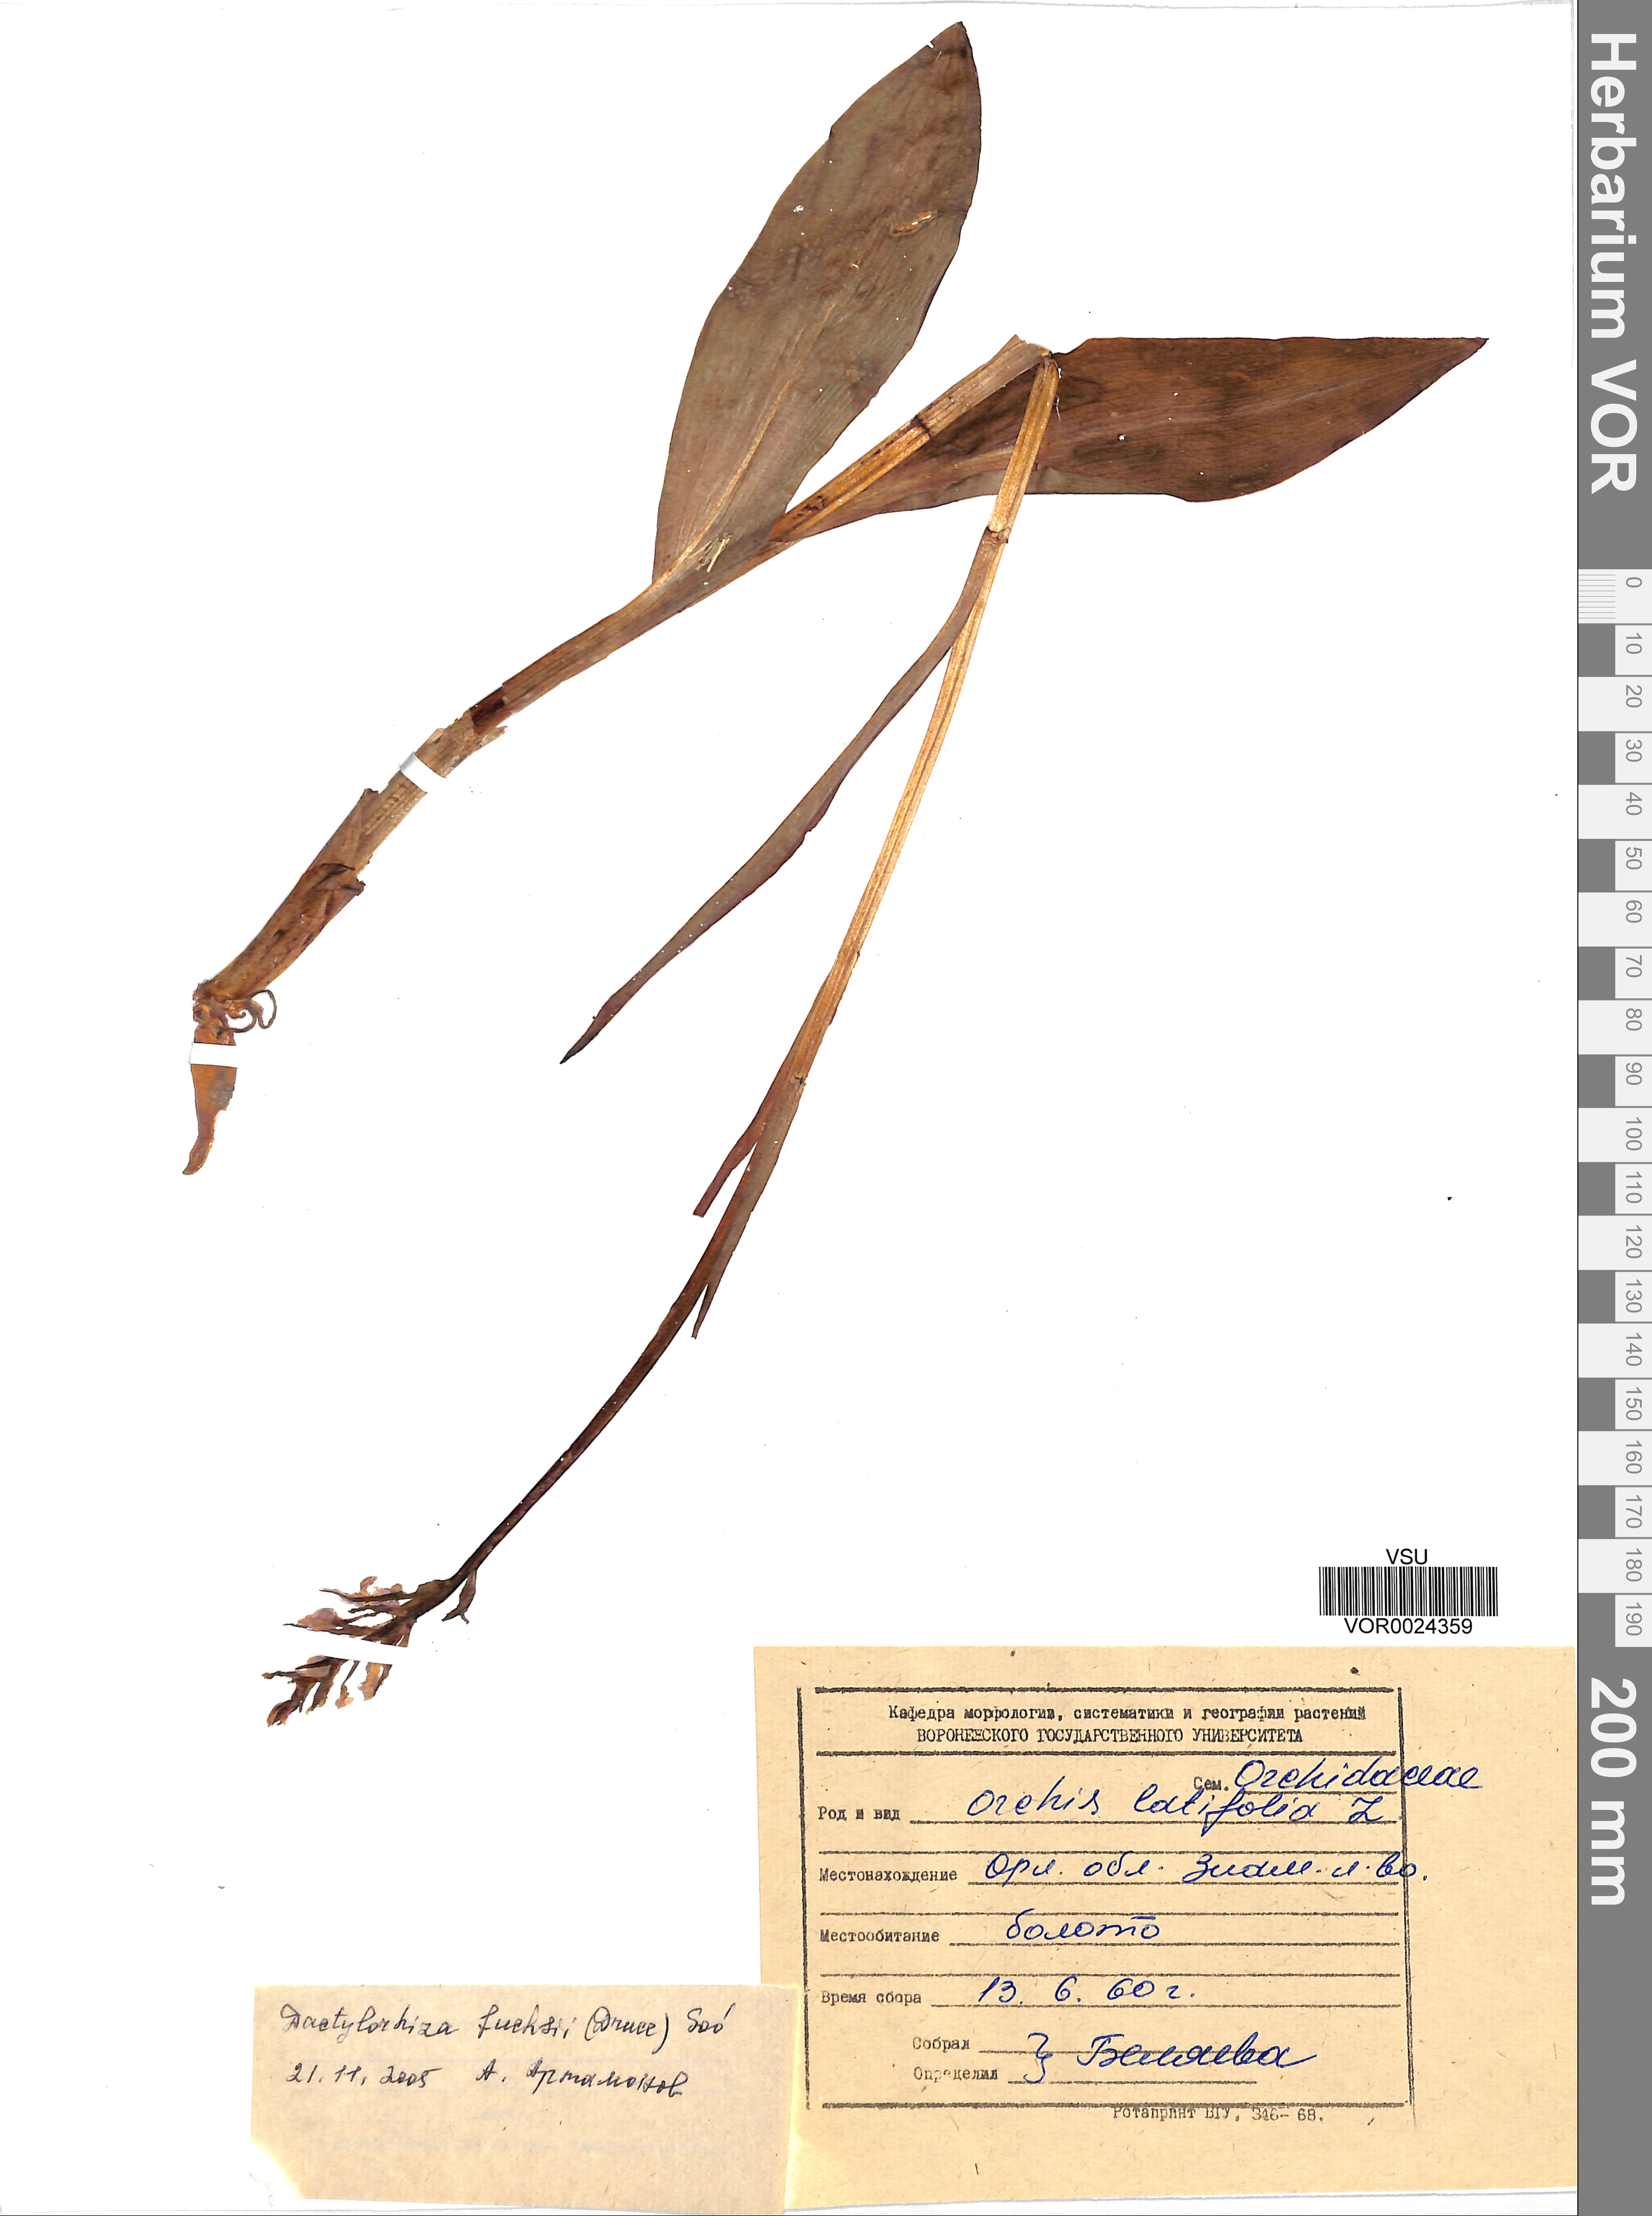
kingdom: Plantae
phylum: Tracheophyta
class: Liliopsida
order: Asparagales
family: Orchidaceae
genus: Dactylorhiza
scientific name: Dactylorhiza maculata
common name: Heath spotted-orchid
